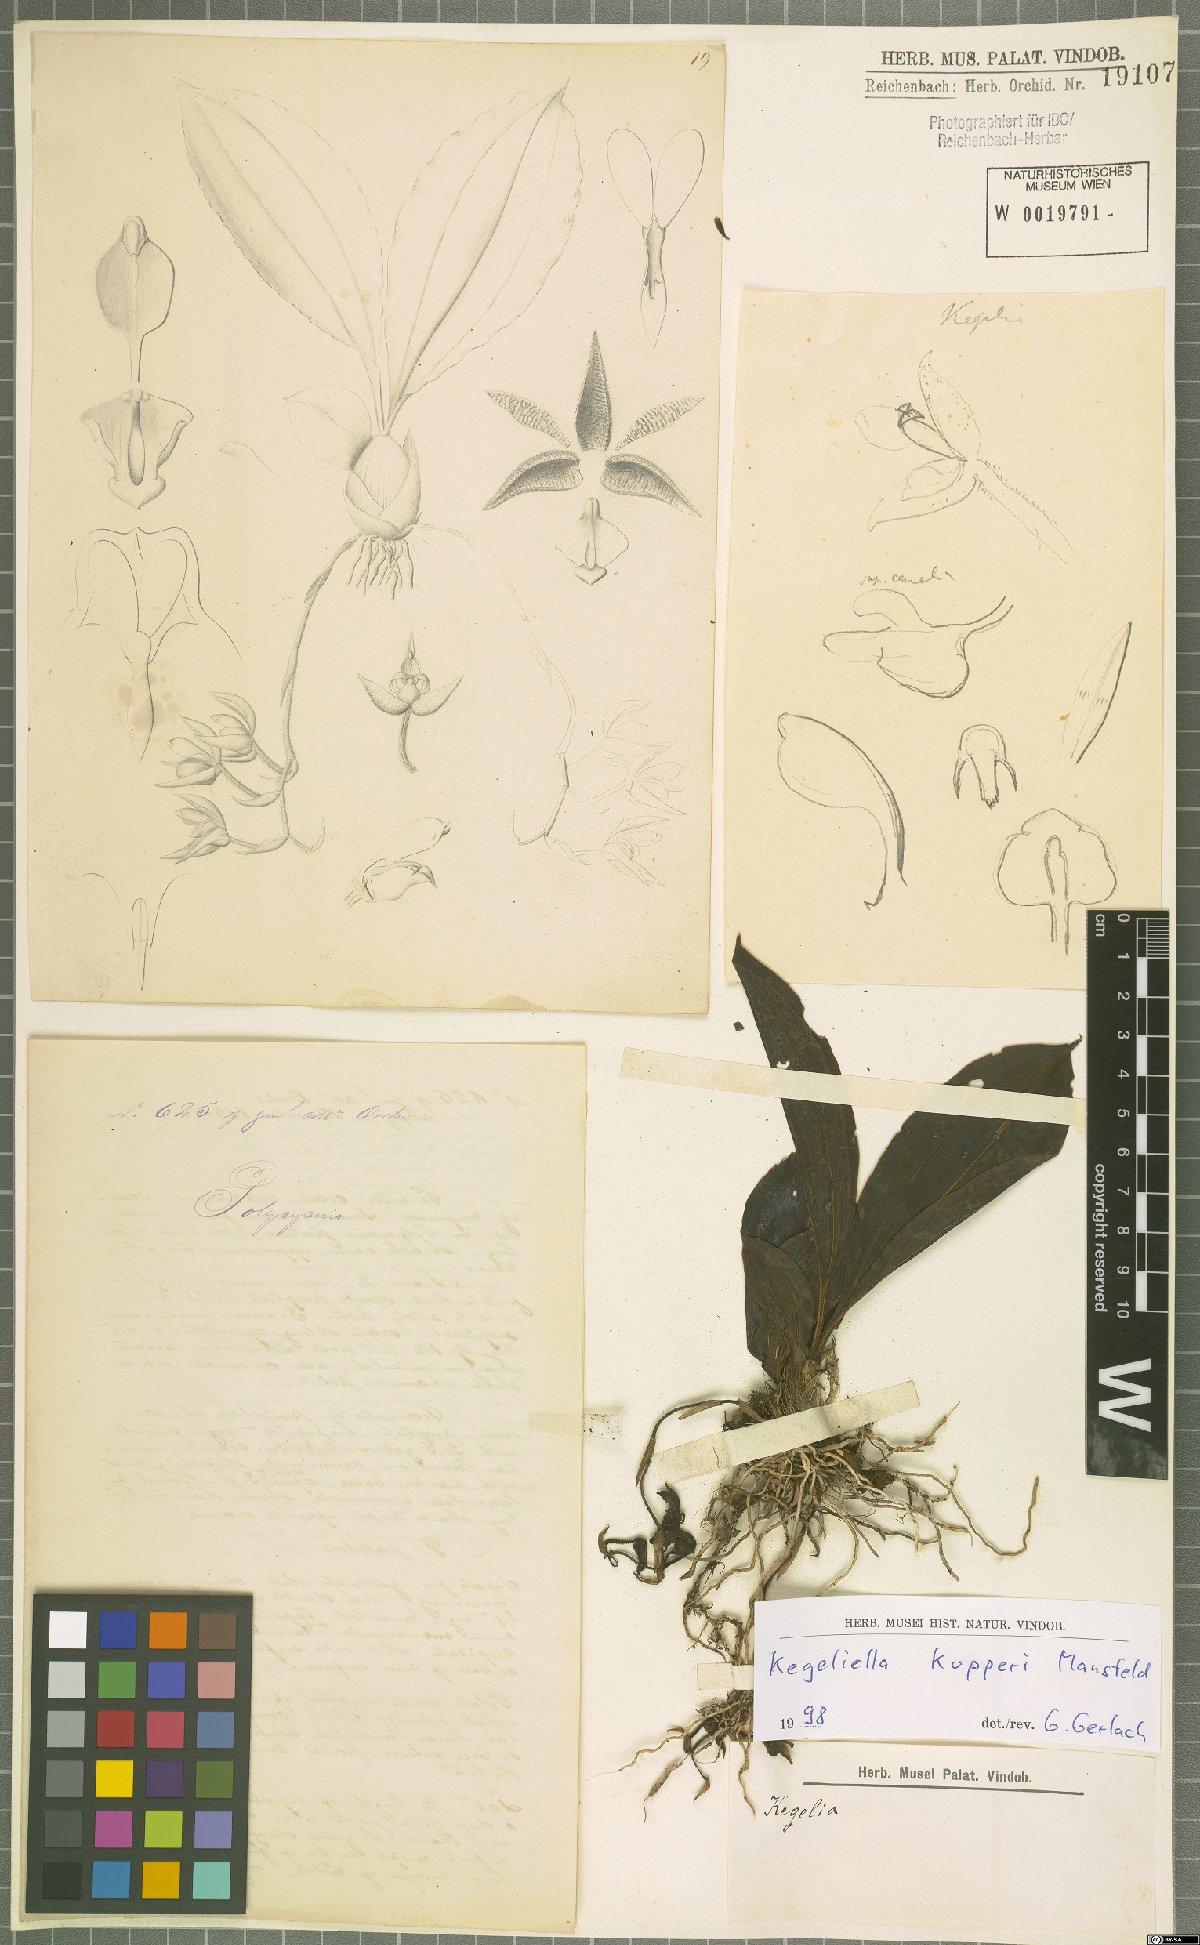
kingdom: Plantae
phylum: Tracheophyta
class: Liliopsida
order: Asparagales
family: Orchidaceae
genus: Kegeliella
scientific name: Kegeliella kupperi
